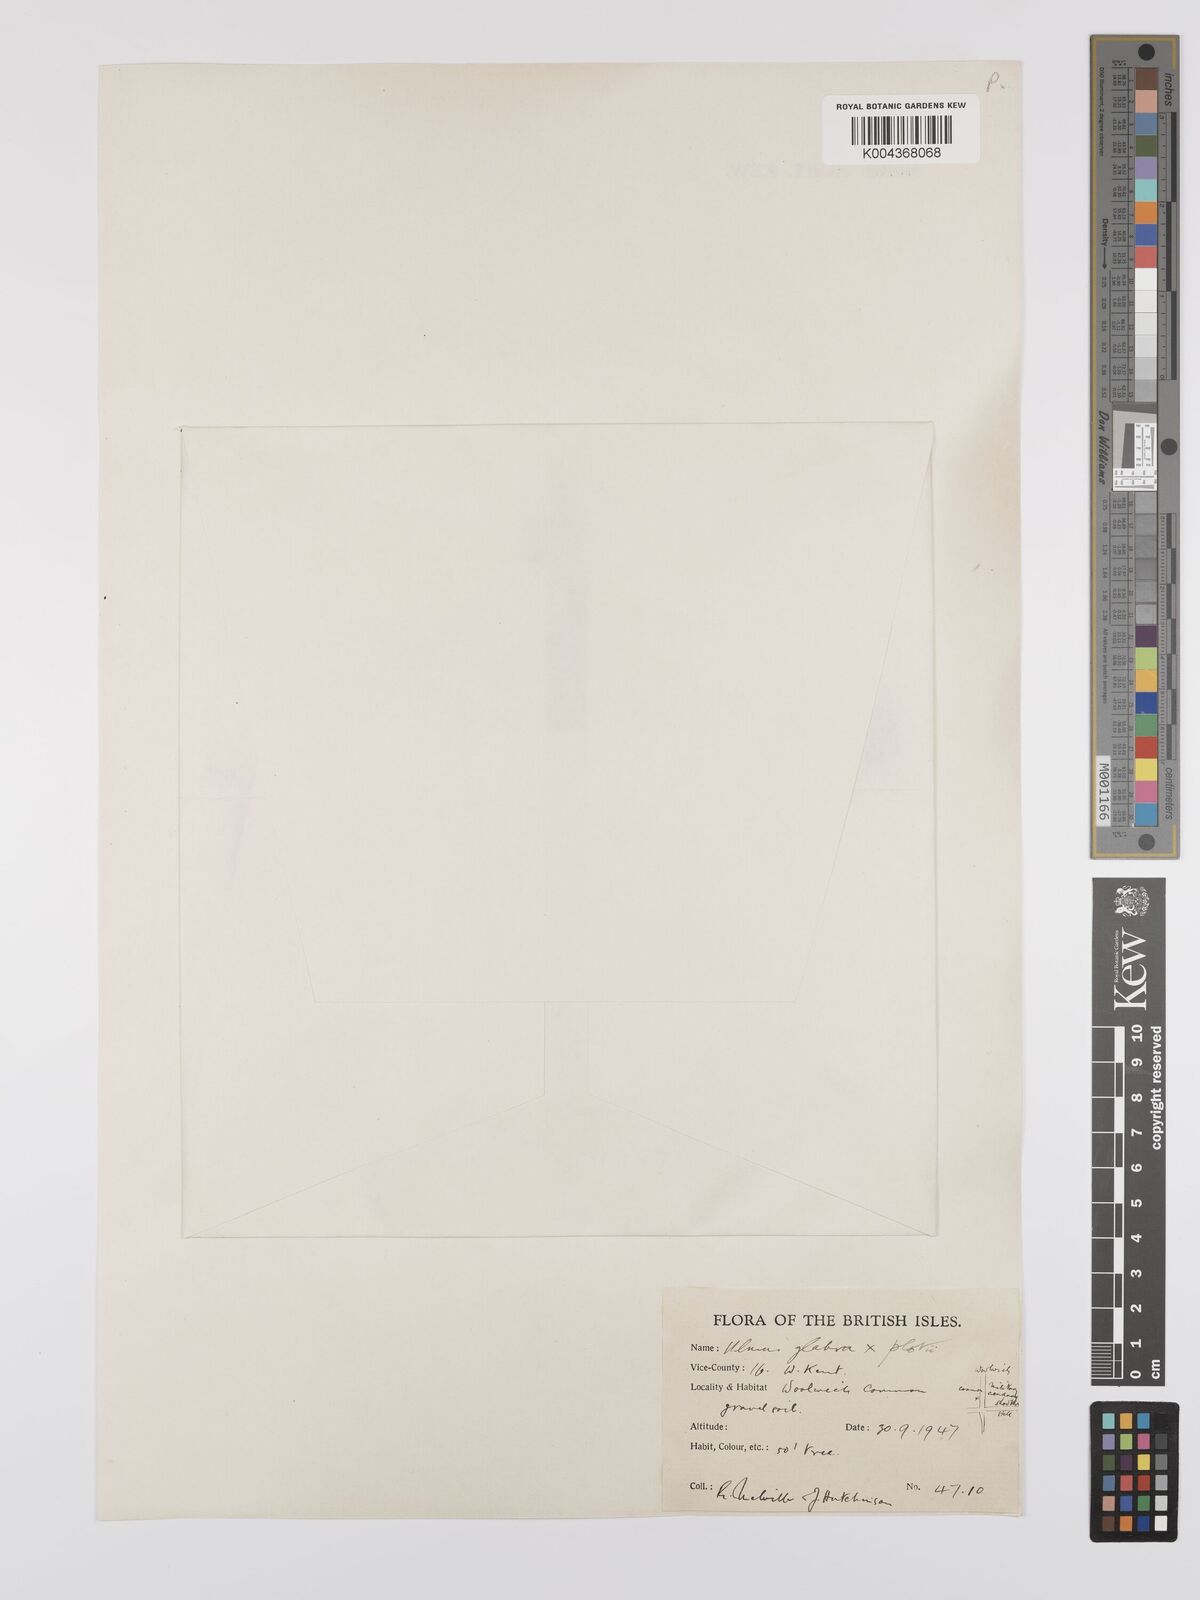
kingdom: Plantae
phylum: Tracheophyta
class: Magnoliopsida
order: Rosales
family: Ulmaceae
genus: Ulmus
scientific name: Ulmus
